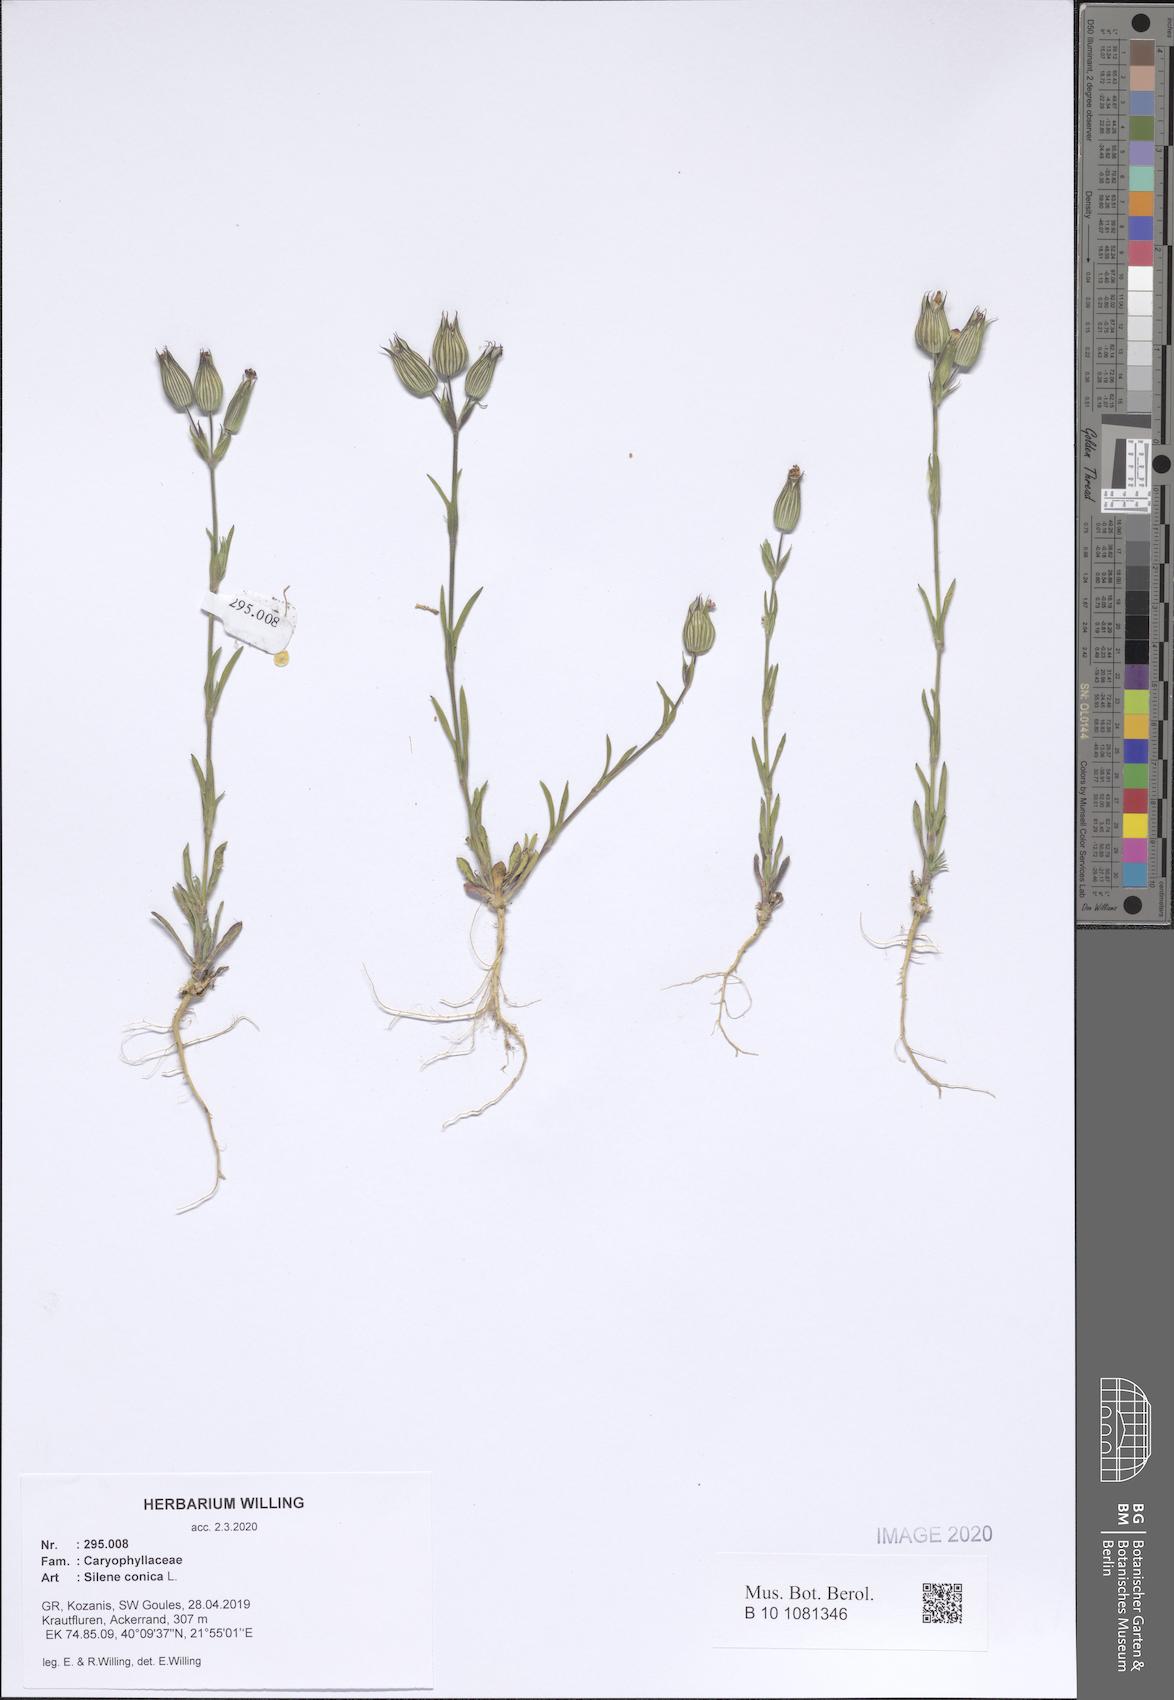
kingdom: Plantae
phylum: Tracheophyta
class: Magnoliopsida
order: Caryophyllales
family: Caryophyllaceae
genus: Silene
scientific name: Silene conica
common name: Sand catchfly
